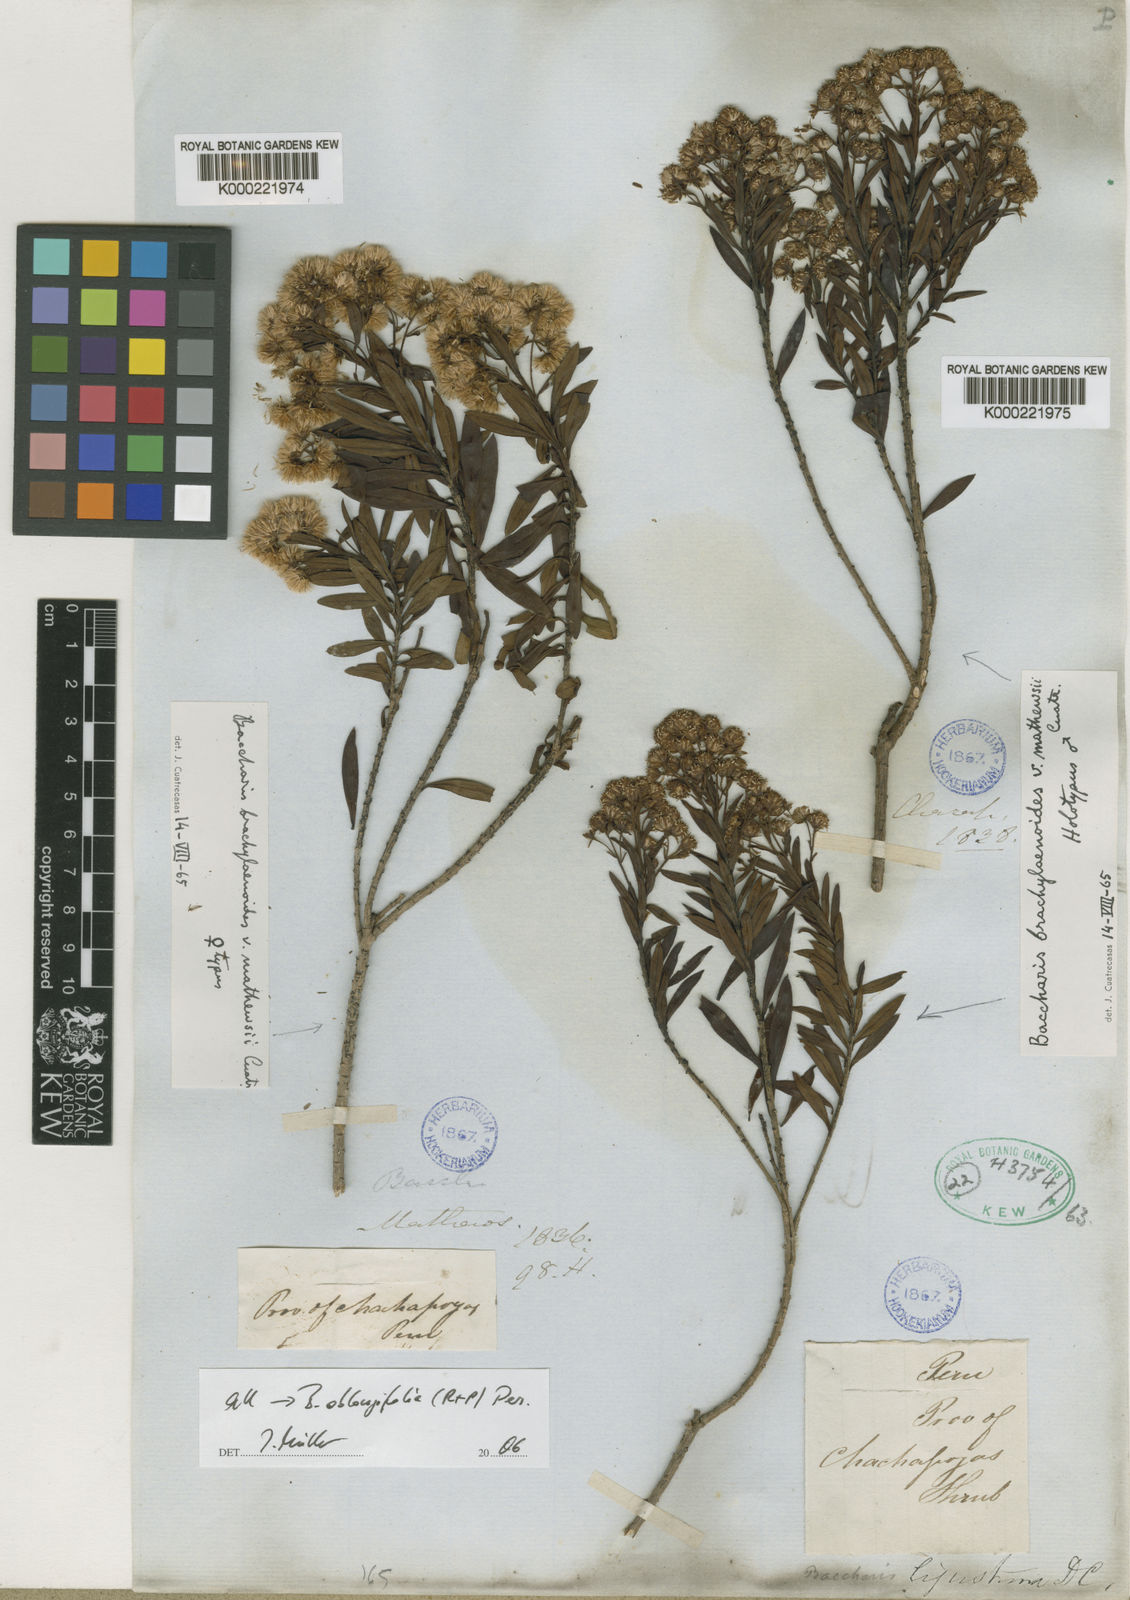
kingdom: Plantae
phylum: Tracheophyta
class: Magnoliopsida
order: Asterales
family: Asteraceae
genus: Baccharis
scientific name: Baccharis oblongifolia
